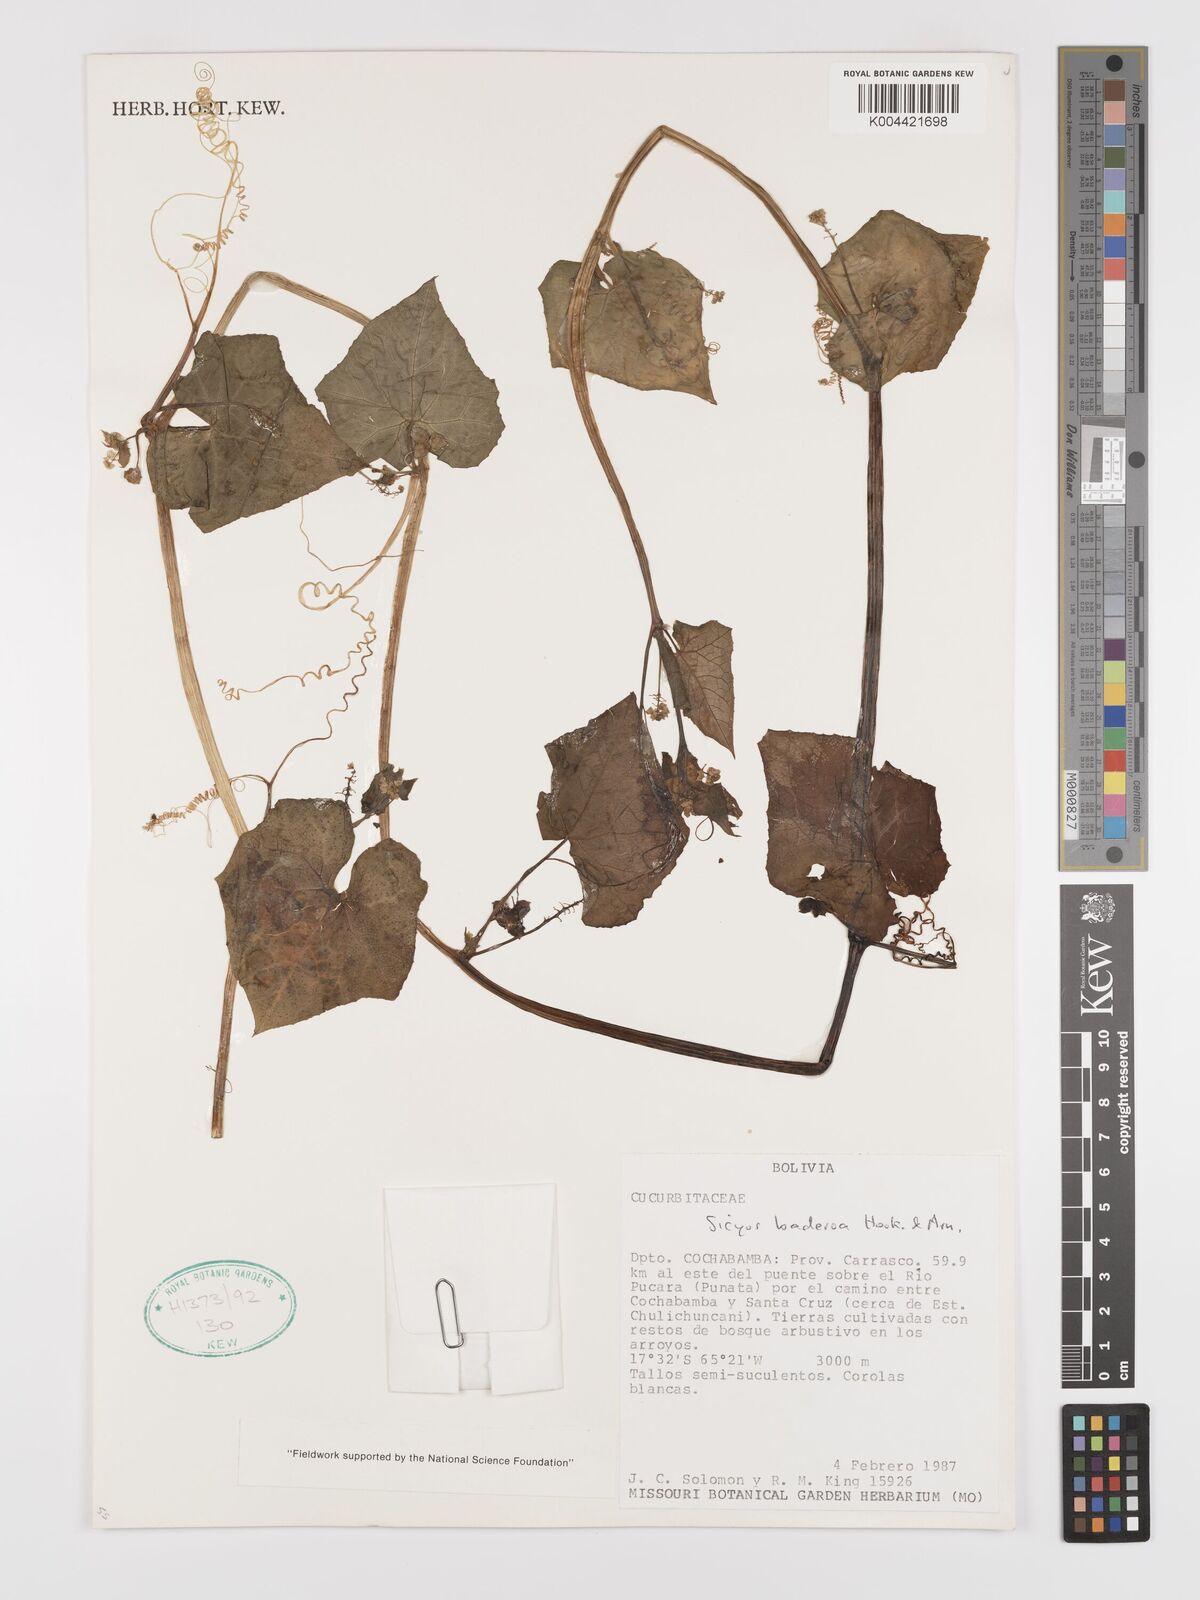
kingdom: Plantae
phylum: Tracheophyta
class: Magnoliopsida
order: Cucurbitales
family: Cucurbitaceae
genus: Sicyos
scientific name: Sicyos baderoa
